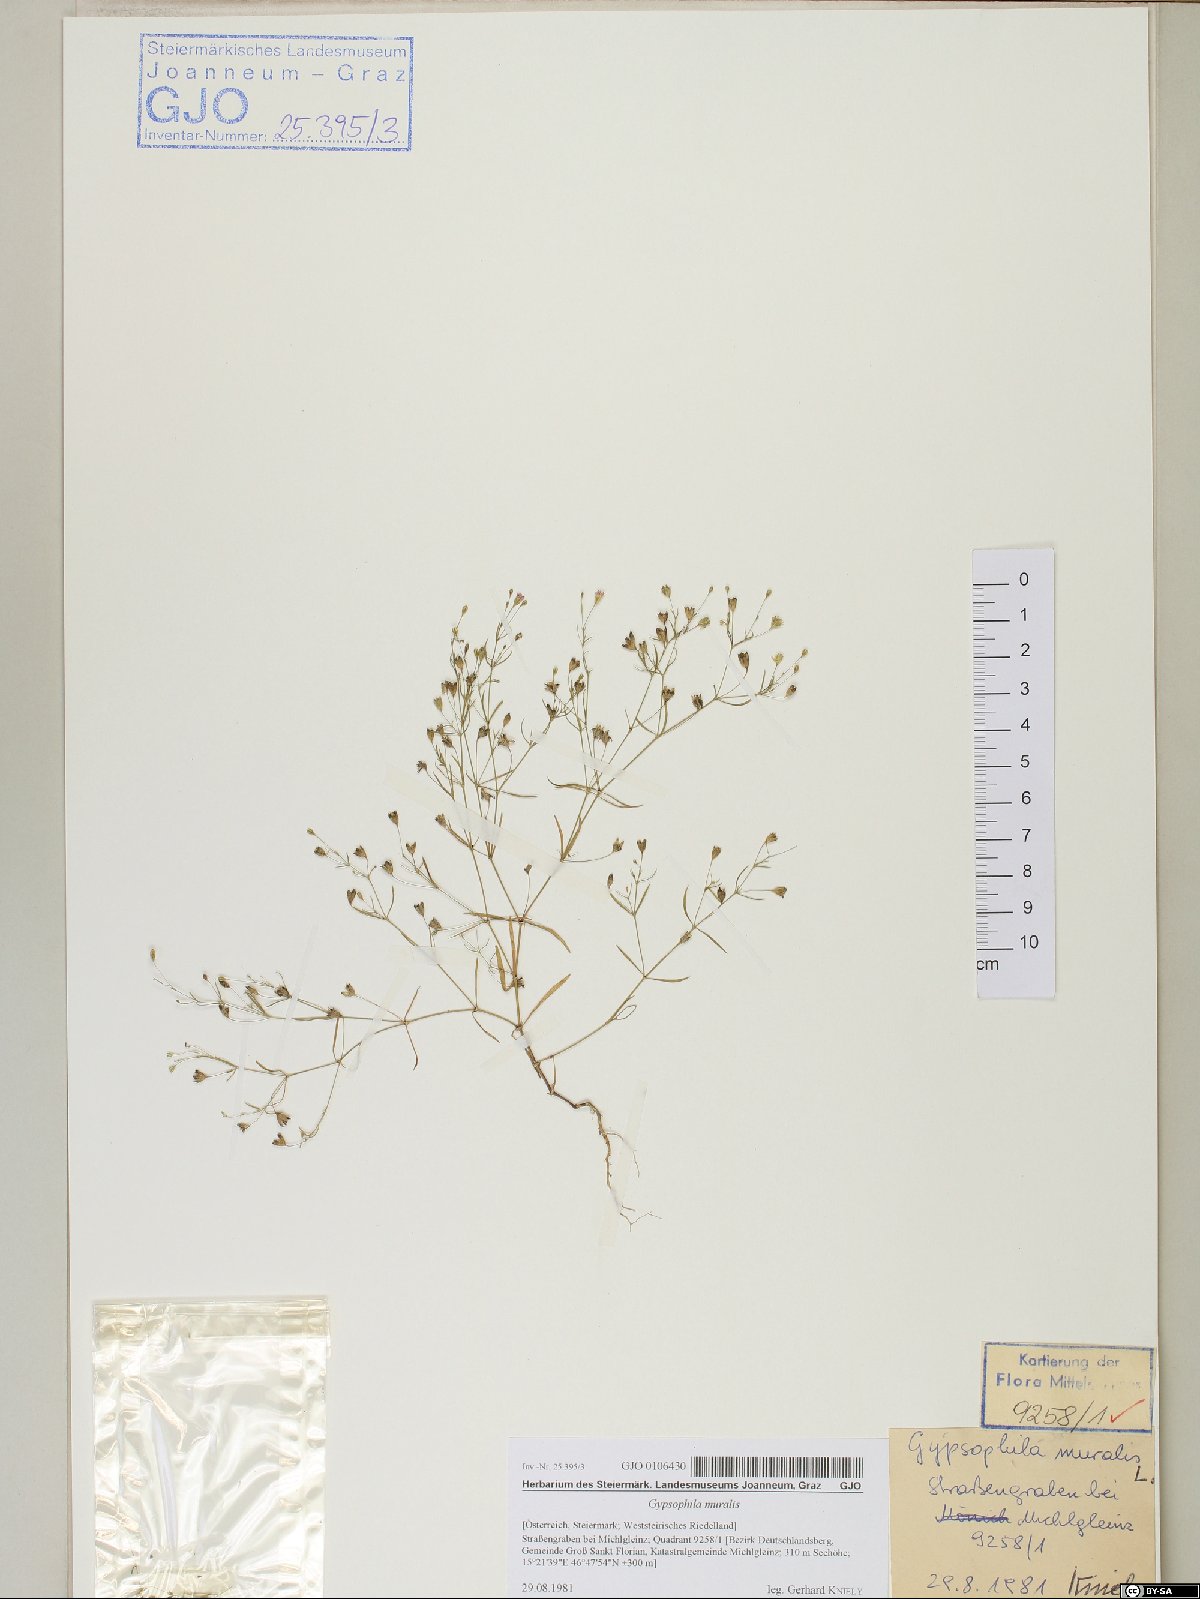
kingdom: Plantae
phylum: Tracheophyta
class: Magnoliopsida
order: Caryophyllales
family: Caryophyllaceae
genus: Psammophiliella
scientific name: Psammophiliella muralis
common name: Cushion baby's-breath
